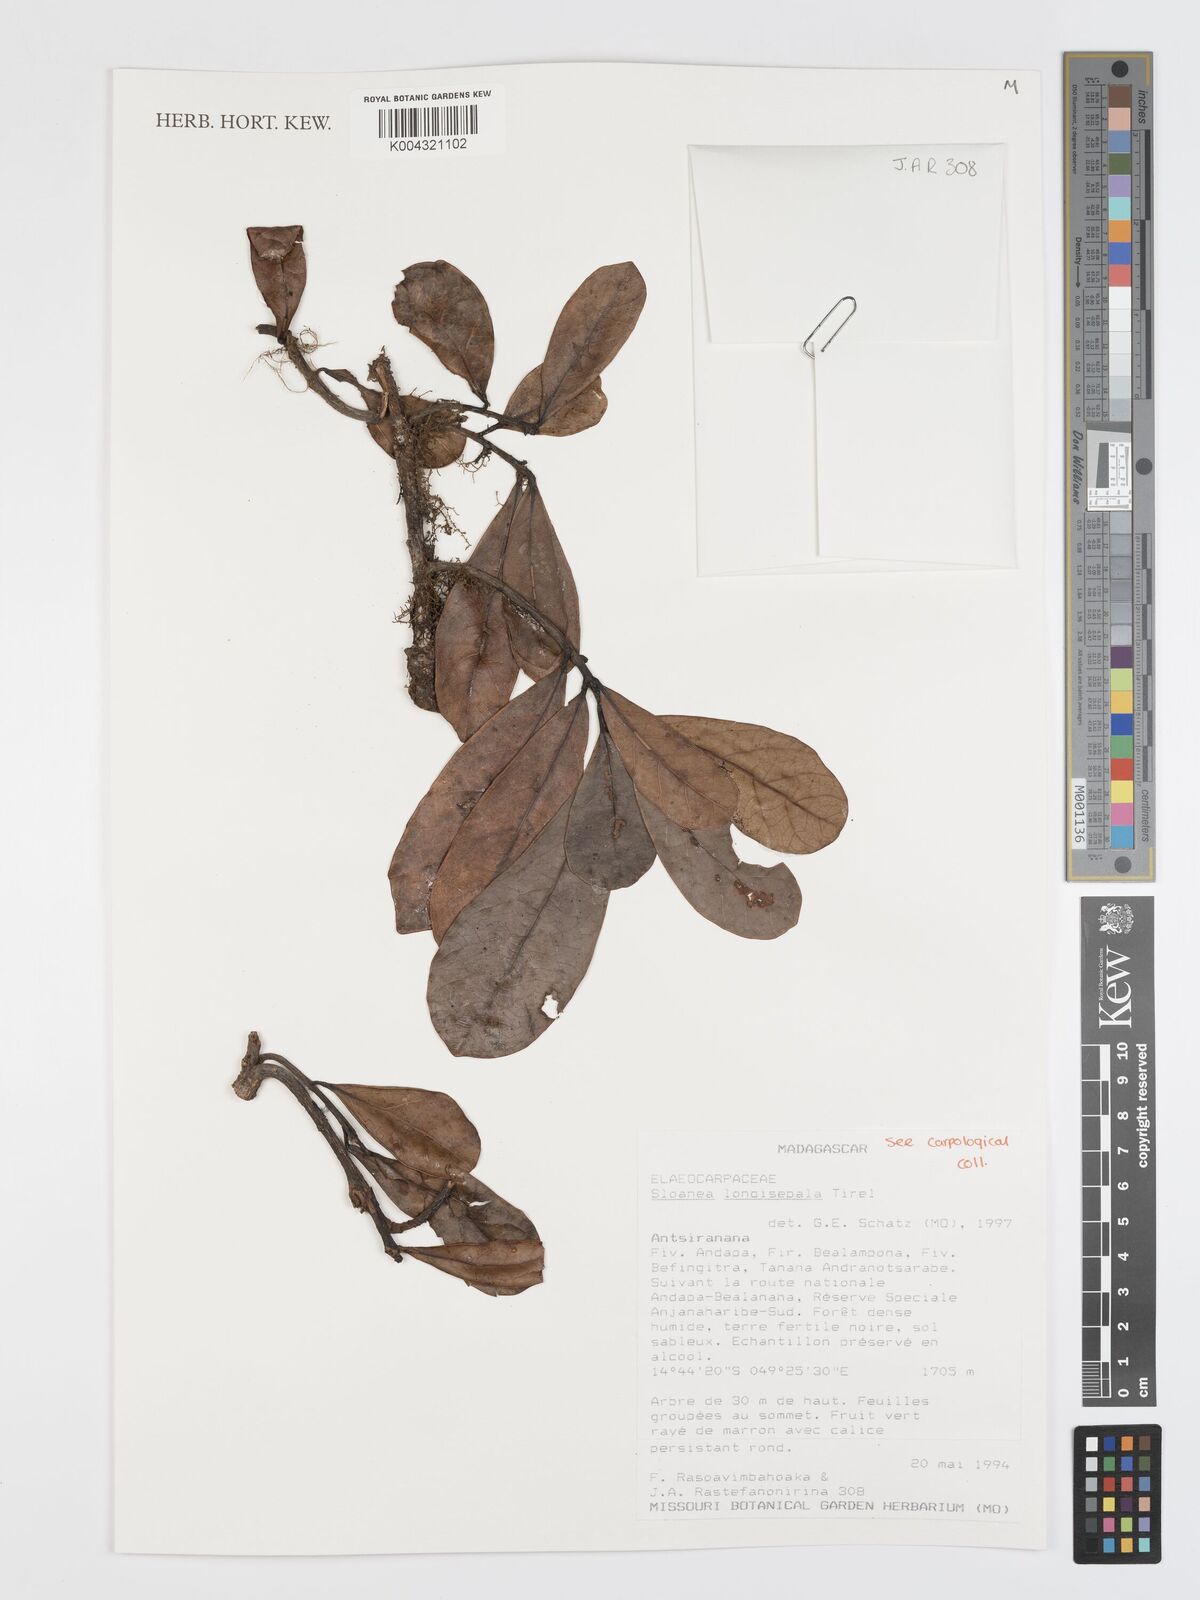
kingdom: Plantae
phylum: Tracheophyta
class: Magnoliopsida
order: Oxalidales
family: Elaeocarpaceae
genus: Sloanea
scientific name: Sloanea longisepala
